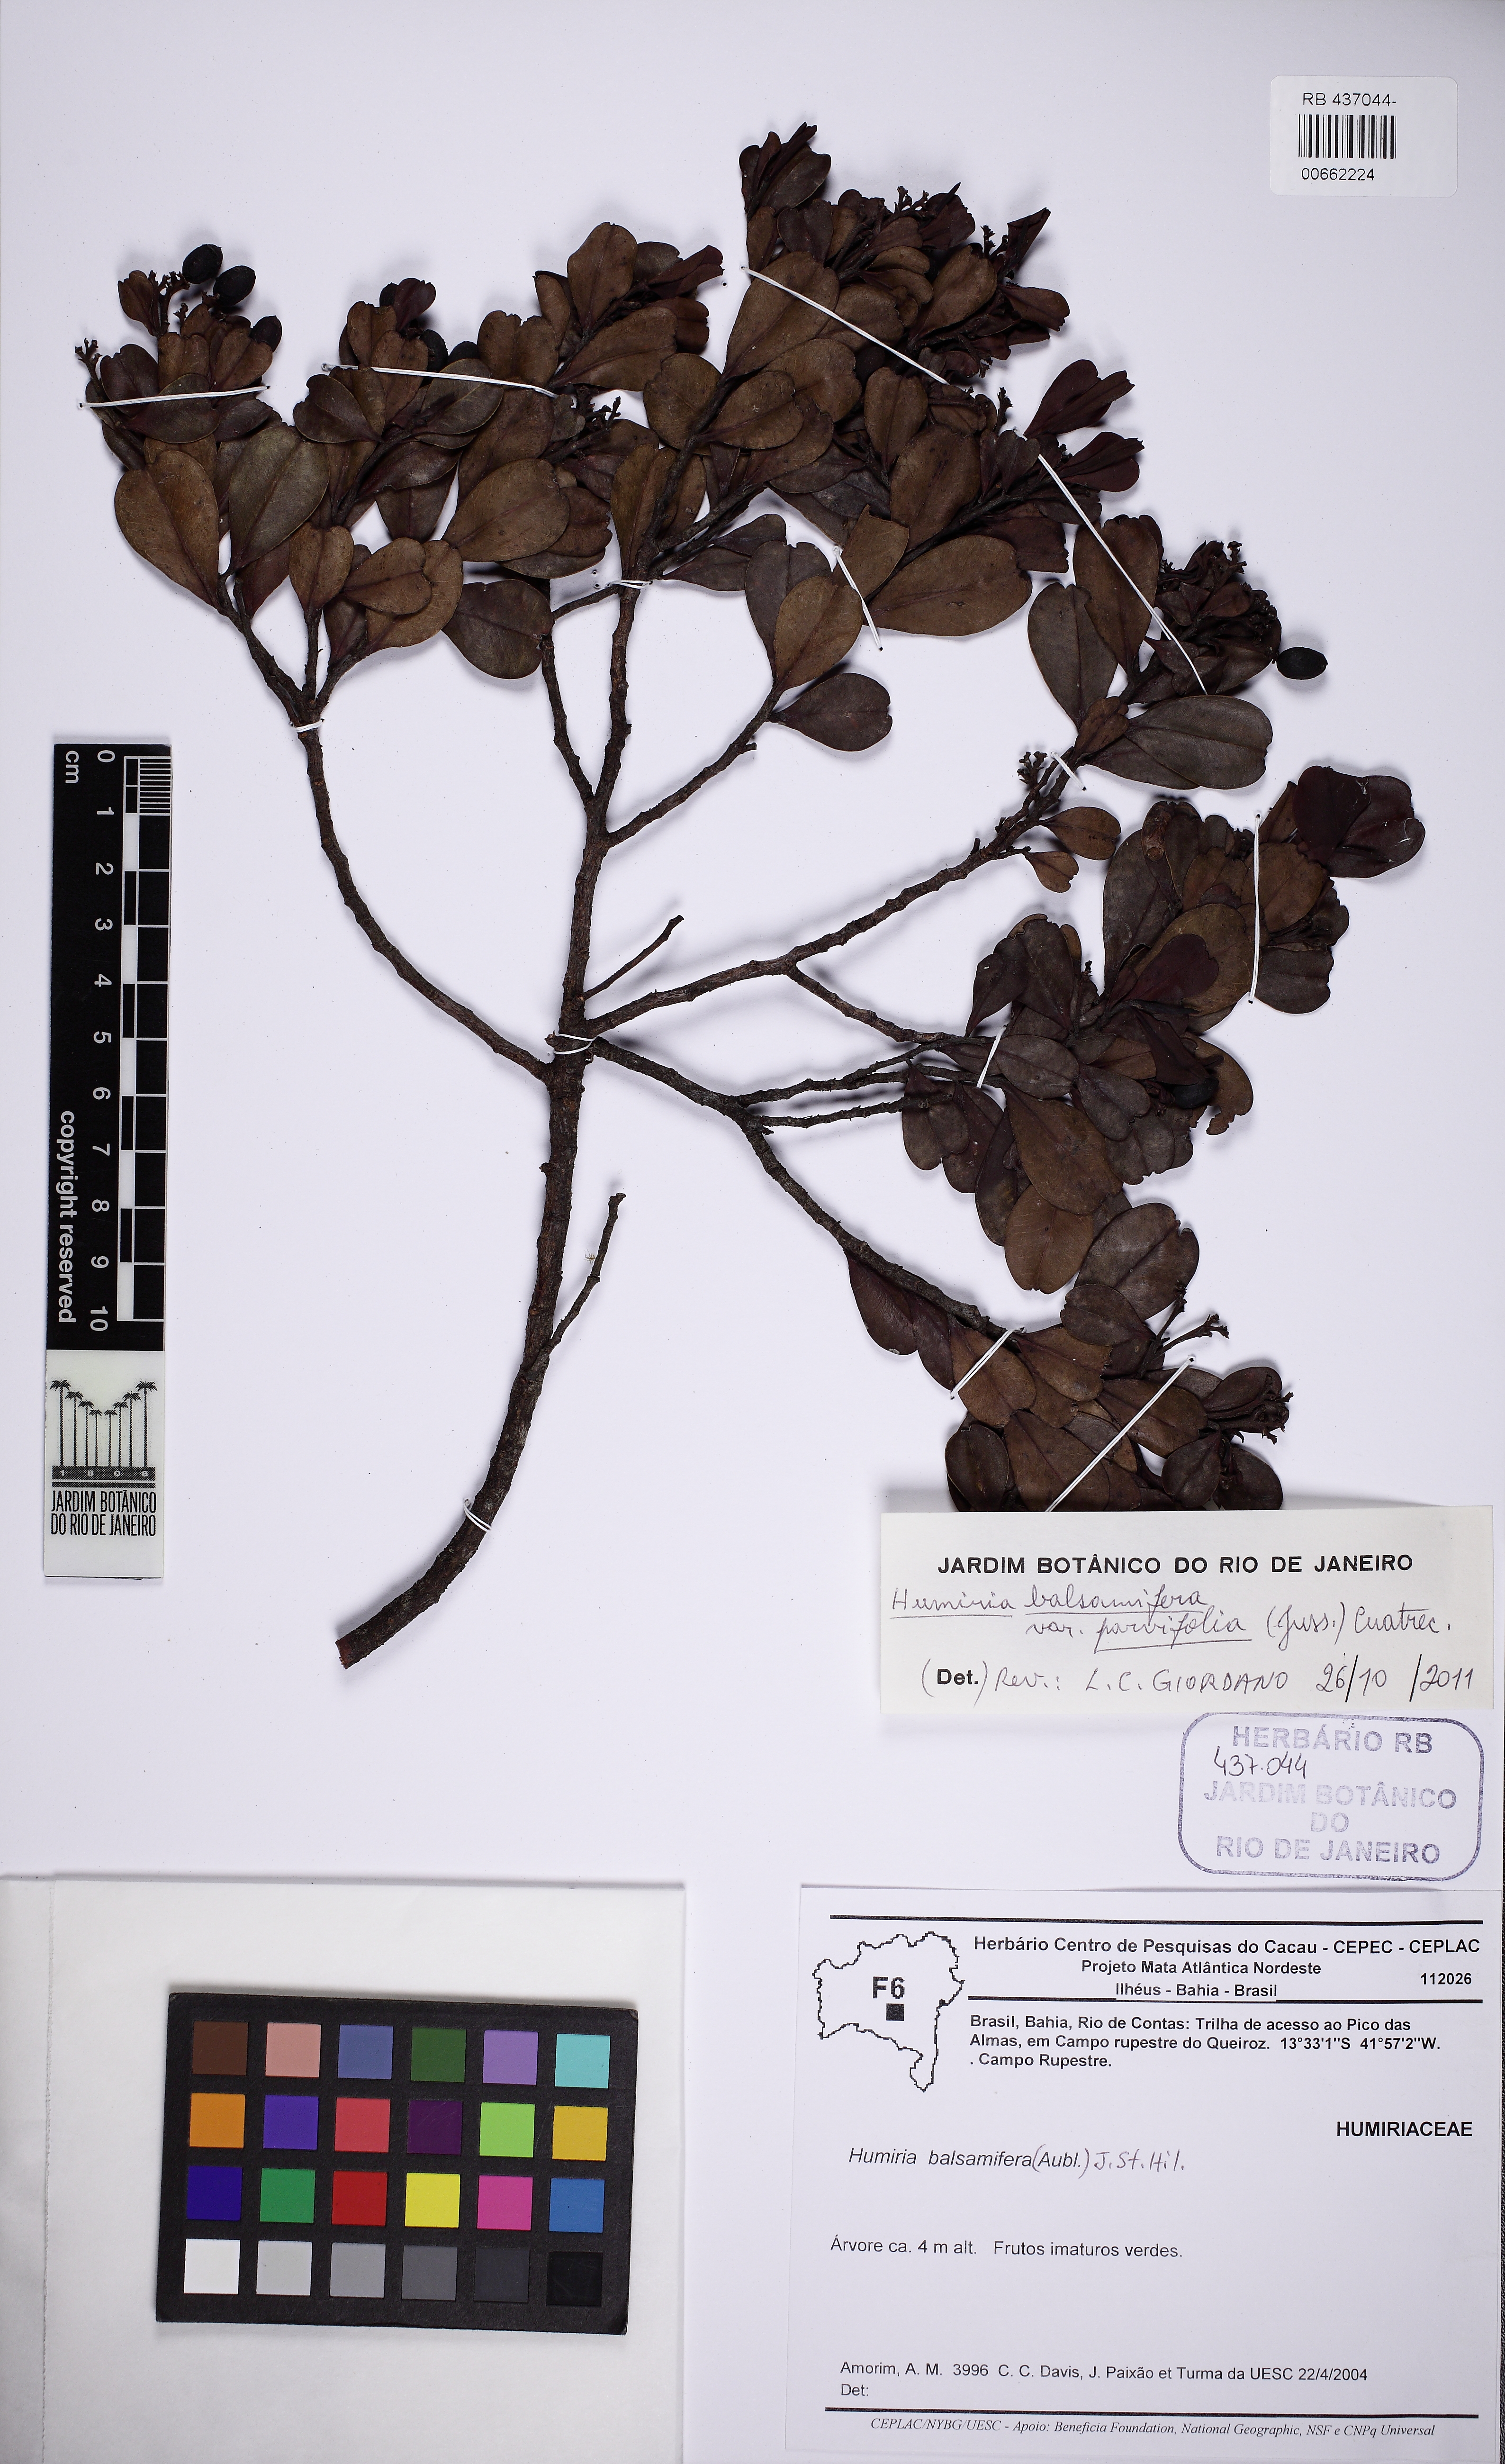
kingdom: Plantae
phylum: Tracheophyta
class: Magnoliopsida
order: Malpighiales
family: Humiriaceae
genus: Humiria
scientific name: Humiria parvifolia
